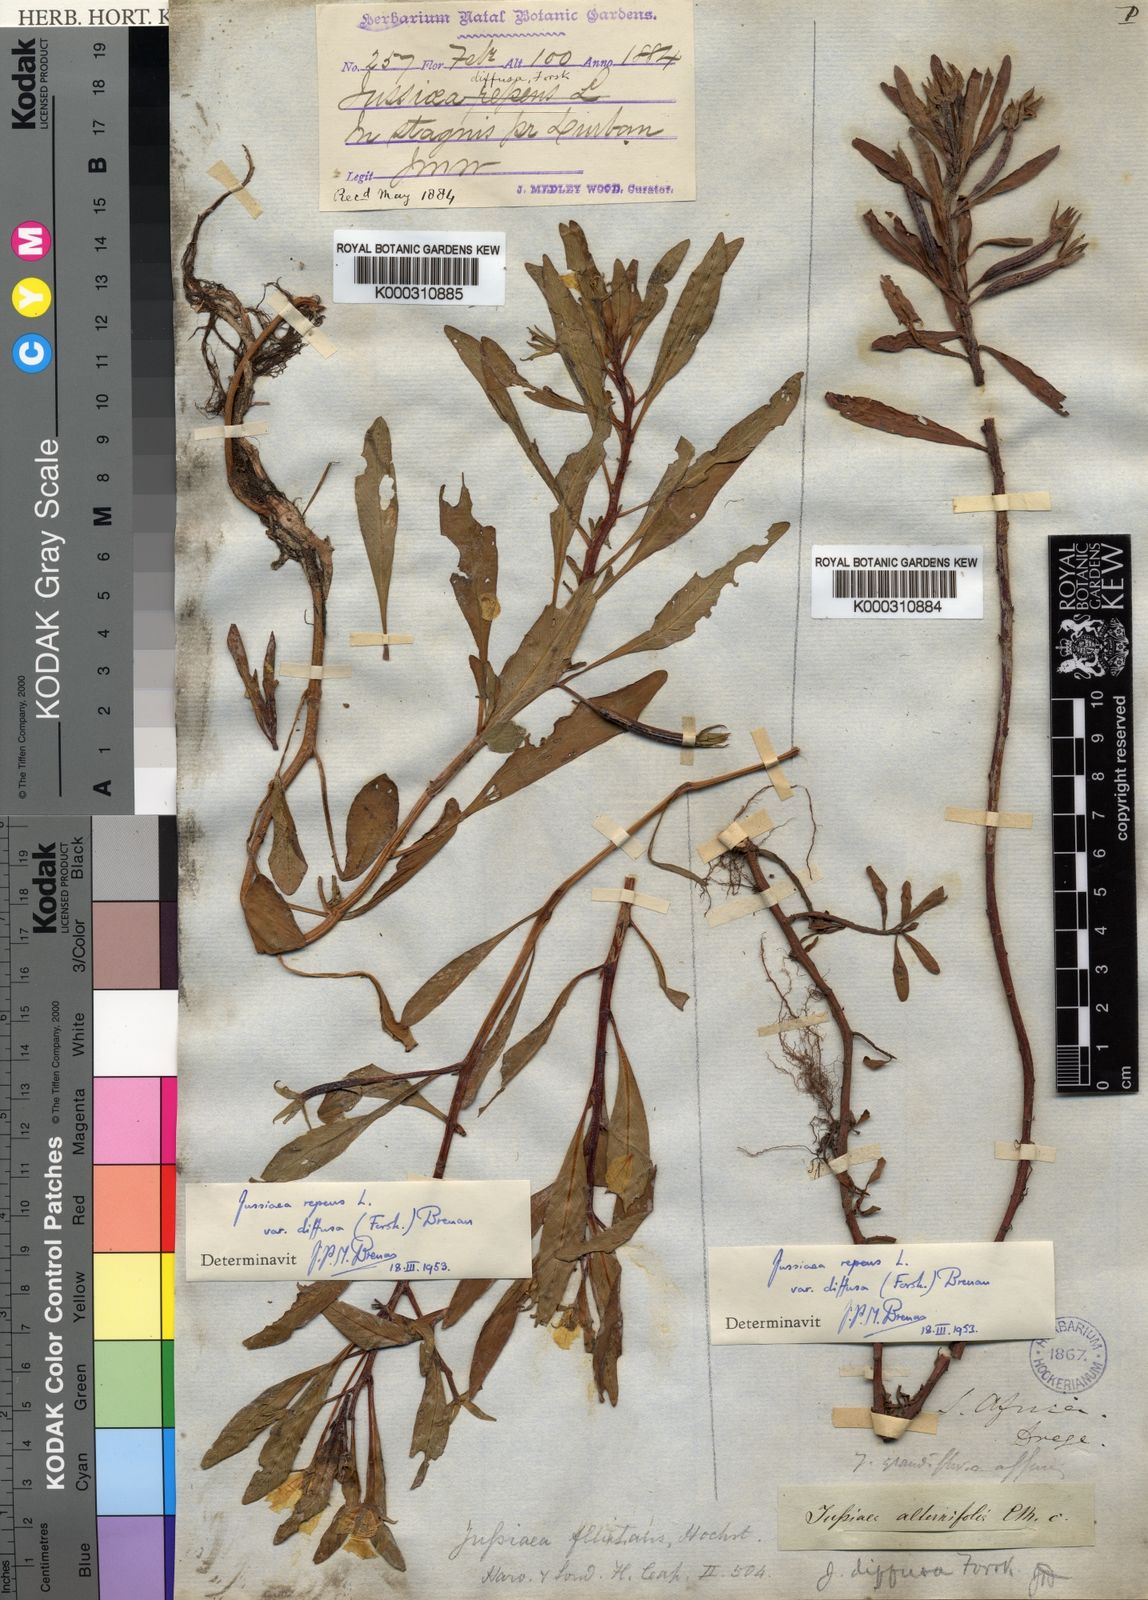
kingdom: Plantae
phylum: Tracheophyta
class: Magnoliopsida
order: Myrtales
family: Onagraceae
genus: Ludwigia
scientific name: Ludwigia adscendens
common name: Creeping water primrose
